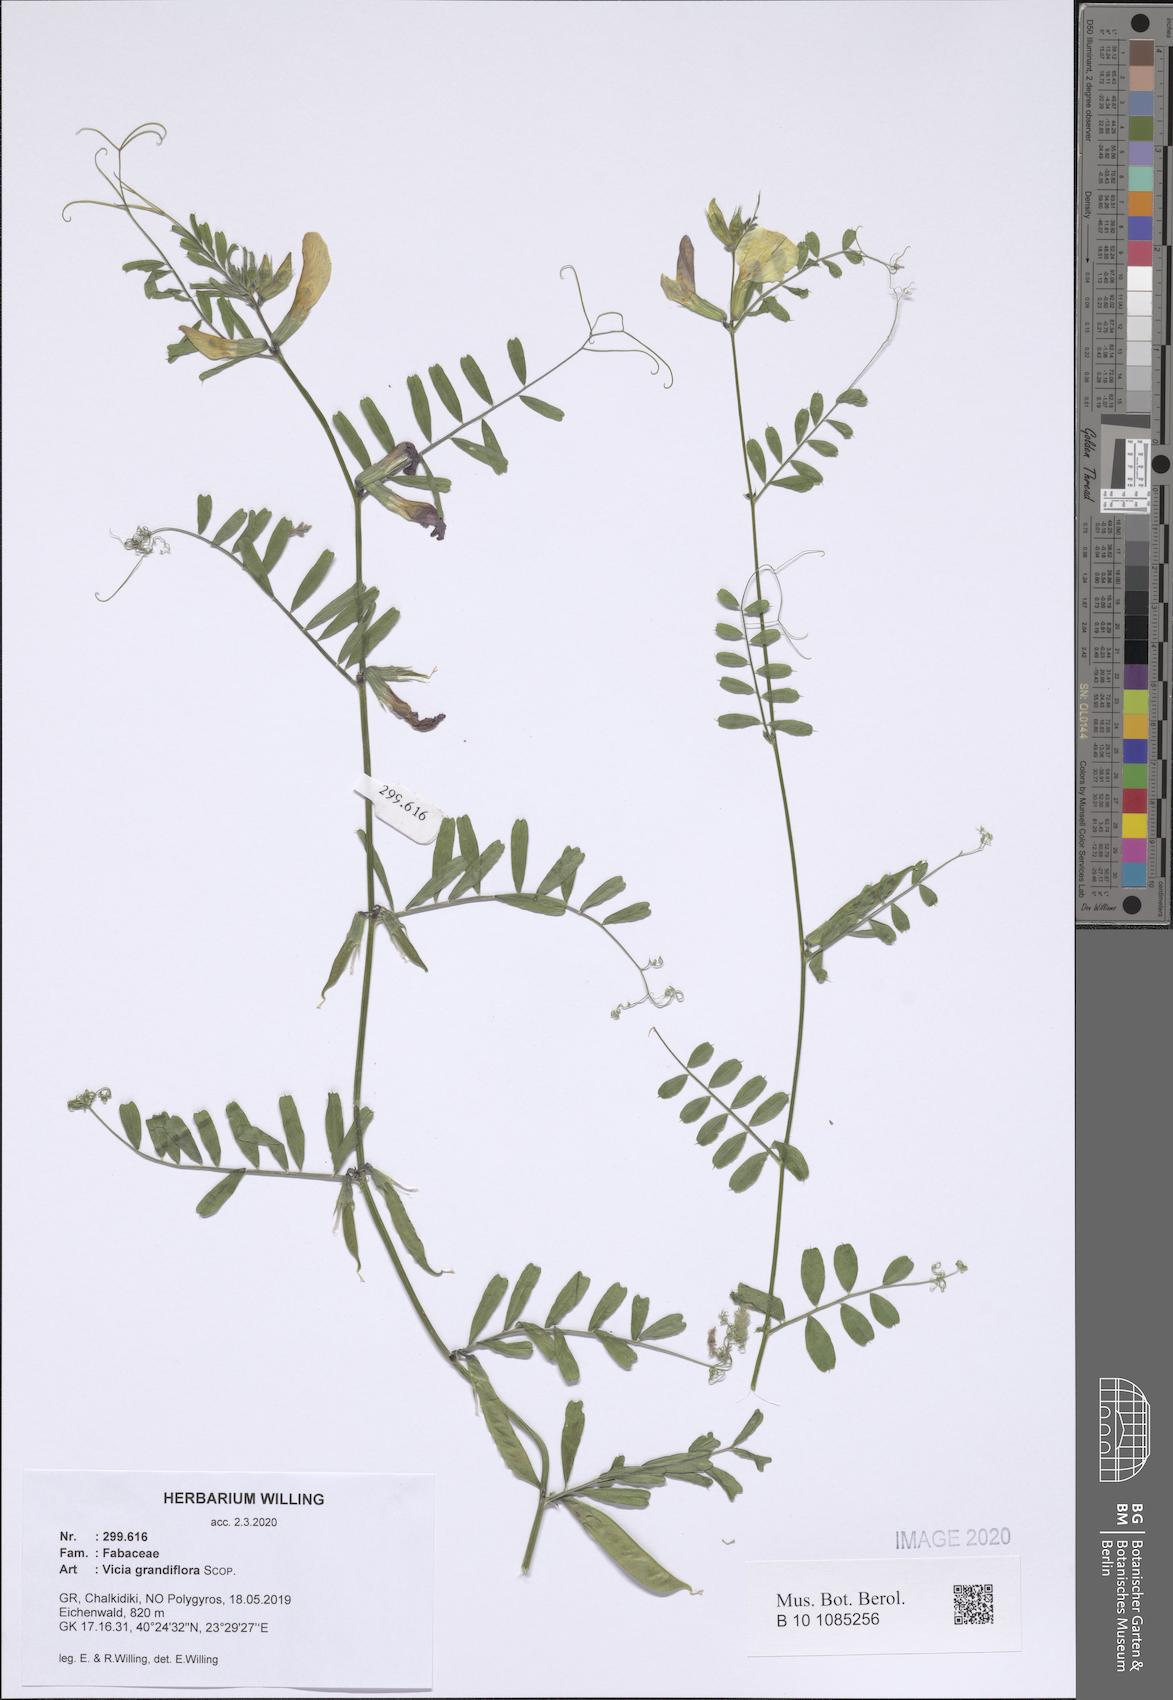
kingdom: Plantae
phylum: Tracheophyta
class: Magnoliopsida
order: Fabales
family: Fabaceae
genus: Vicia
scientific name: Vicia grandiflora
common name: Large yellow vetch
